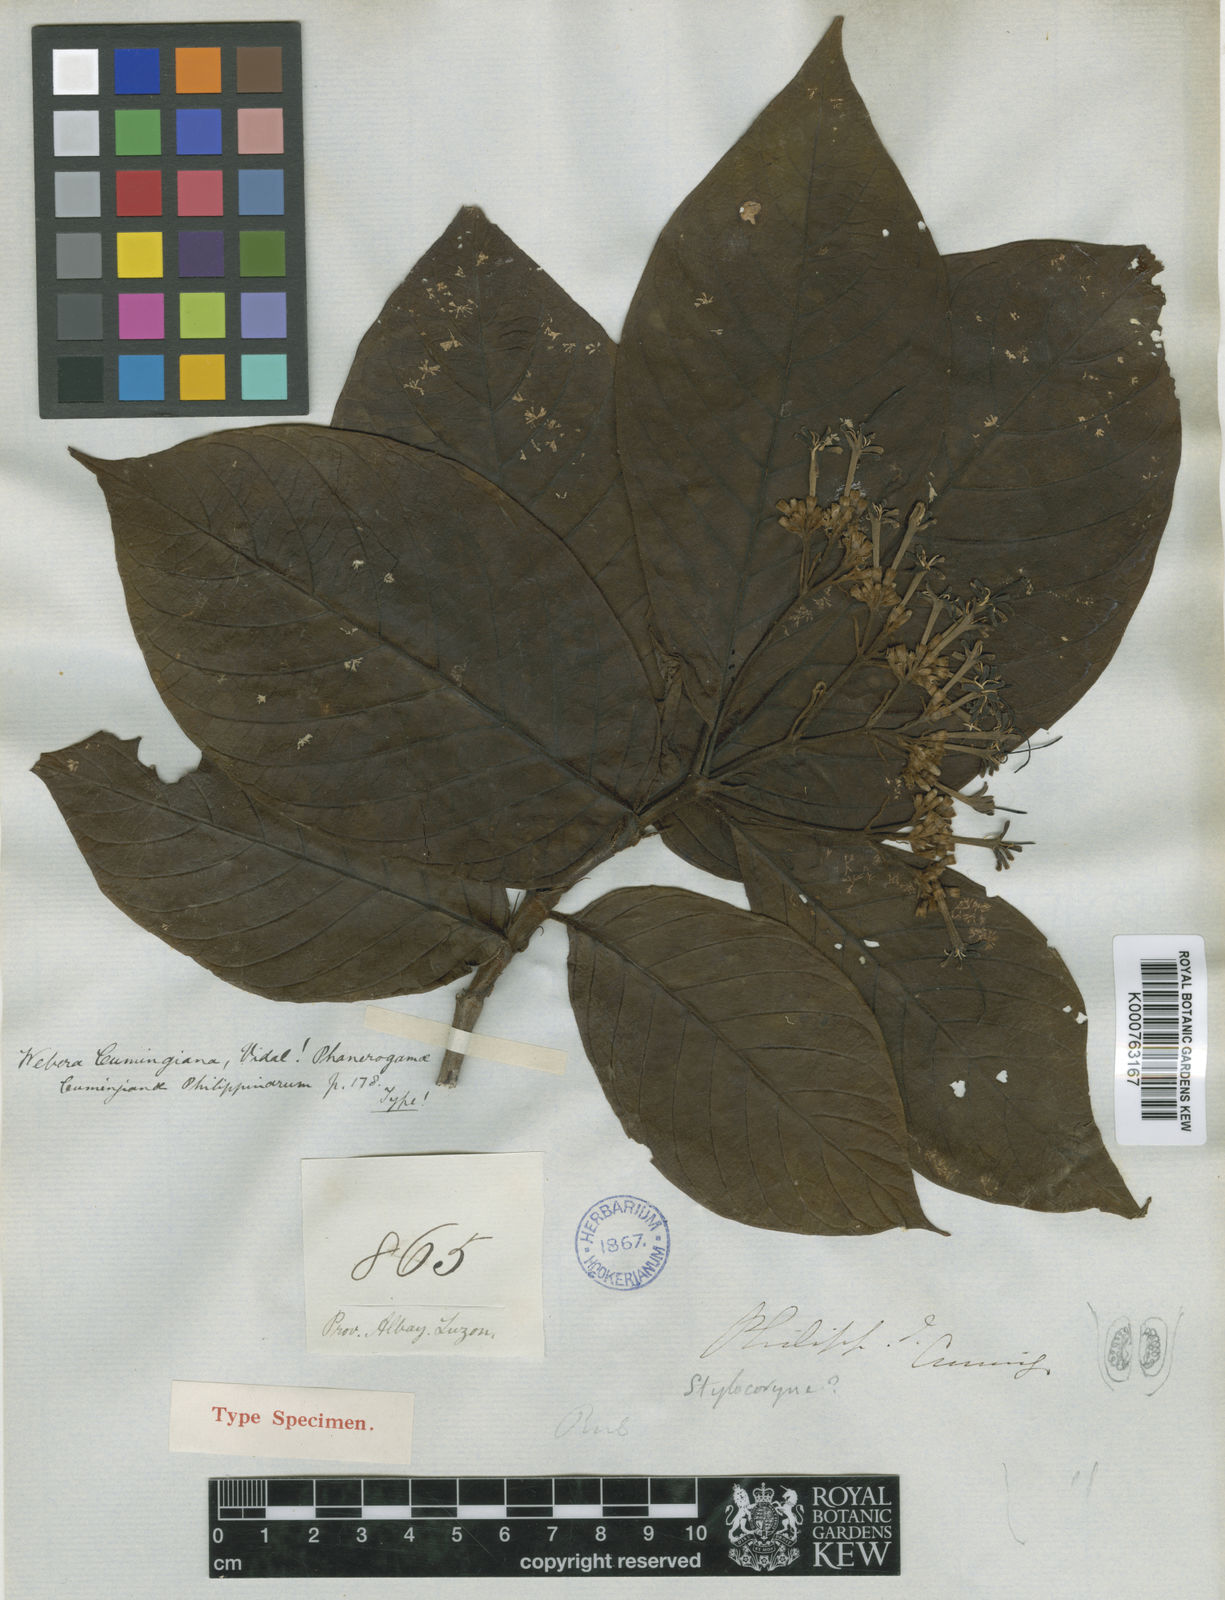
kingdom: Plantae
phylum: Tracheophyta
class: Magnoliopsida
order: Gentianales
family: Rubiaceae
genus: Tarenna
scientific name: Tarenna cumingiana
